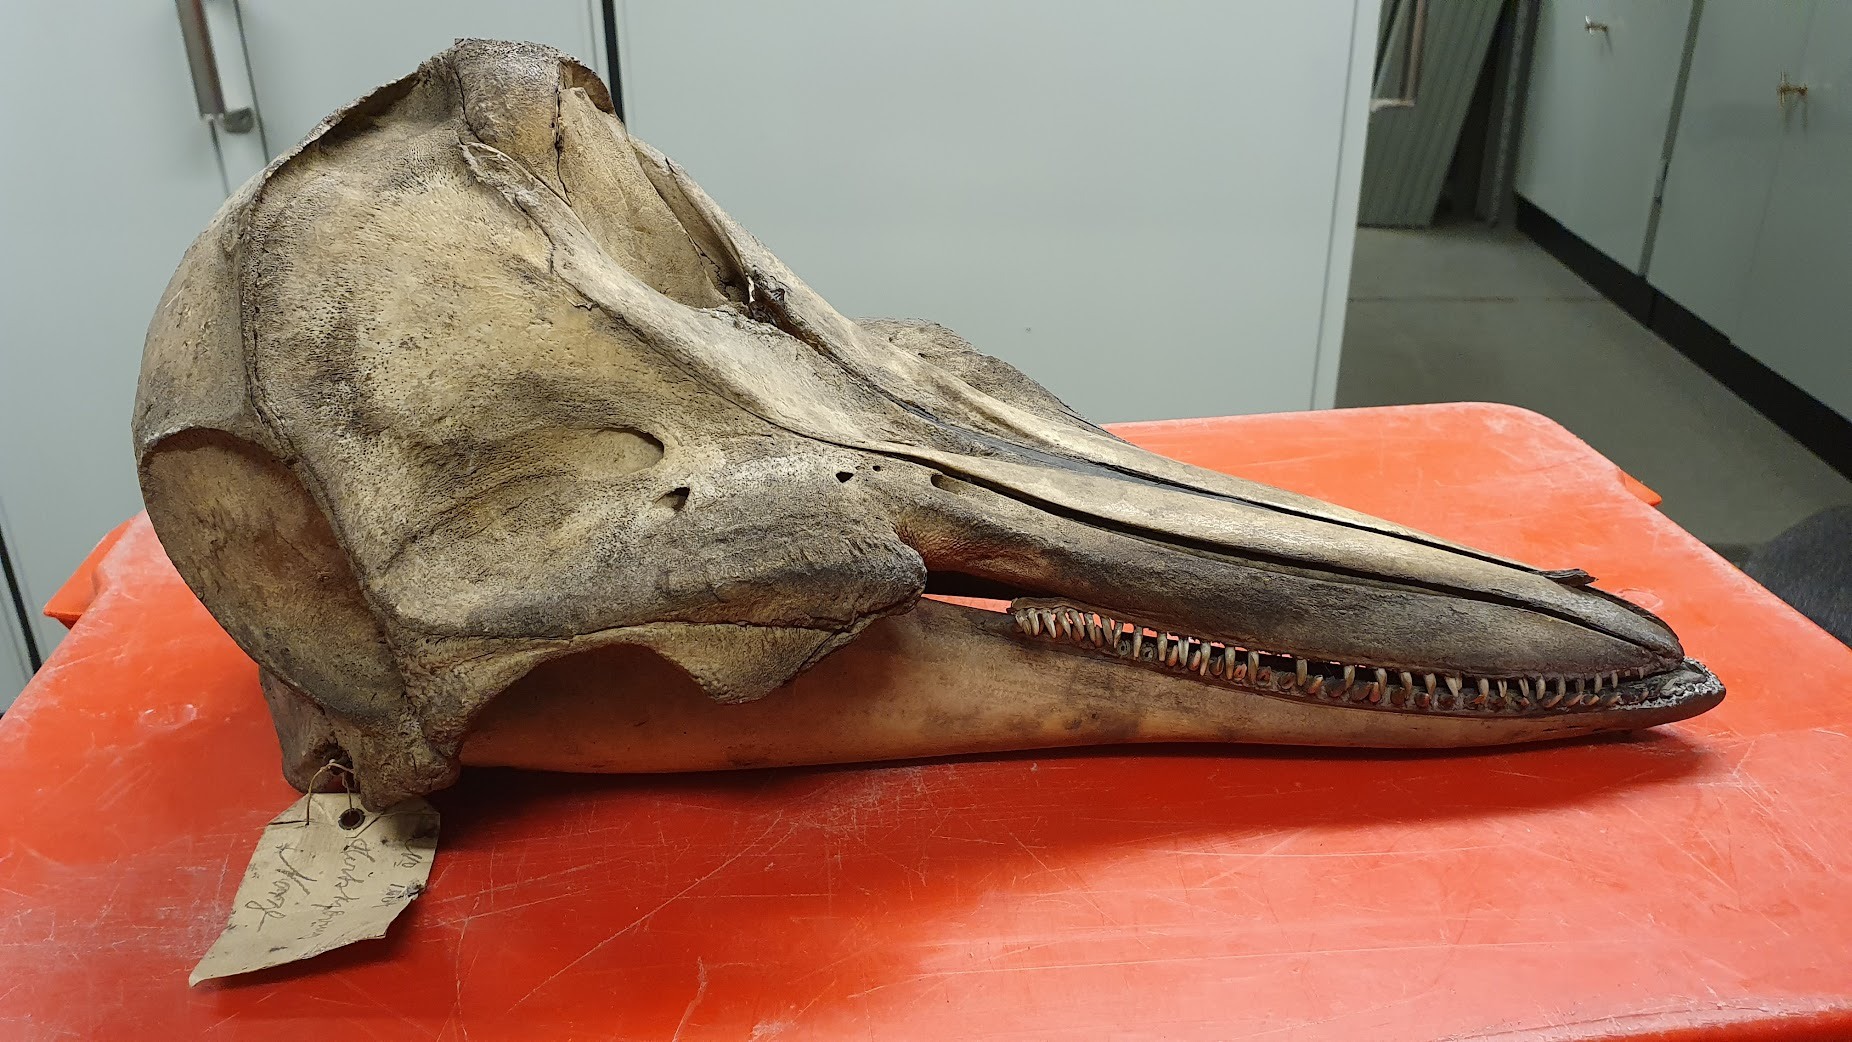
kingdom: Animalia
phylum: Chordata
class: Mammalia
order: Cetacea
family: Delphinidae
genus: Lagenorhynchus
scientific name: Lagenorhynchus acutus
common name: Atlantic white-sided dolphin
